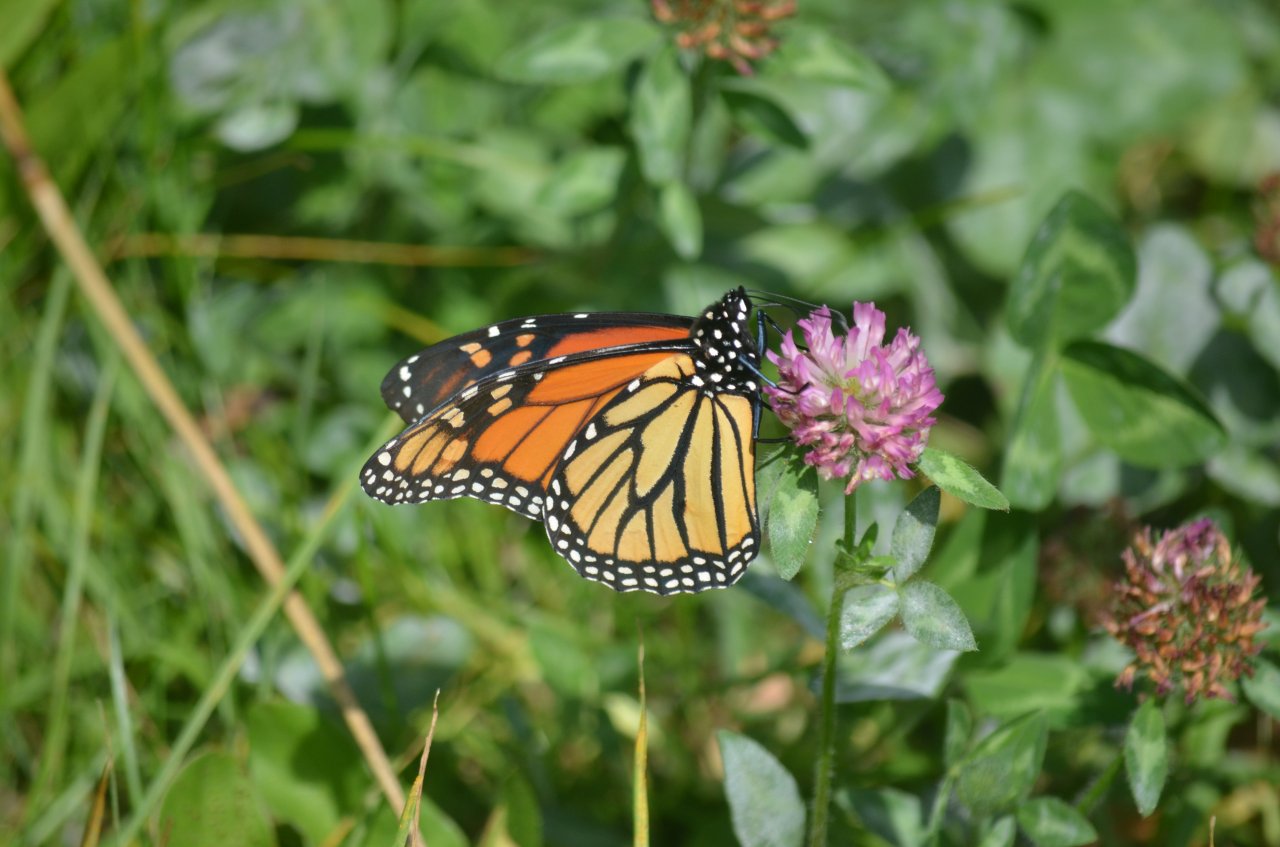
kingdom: Animalia
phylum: Arthropoda
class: Insecta
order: Lepidoptera
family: Nymphalidae
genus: Danaus
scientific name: Danaus plexippus
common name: Monarch
